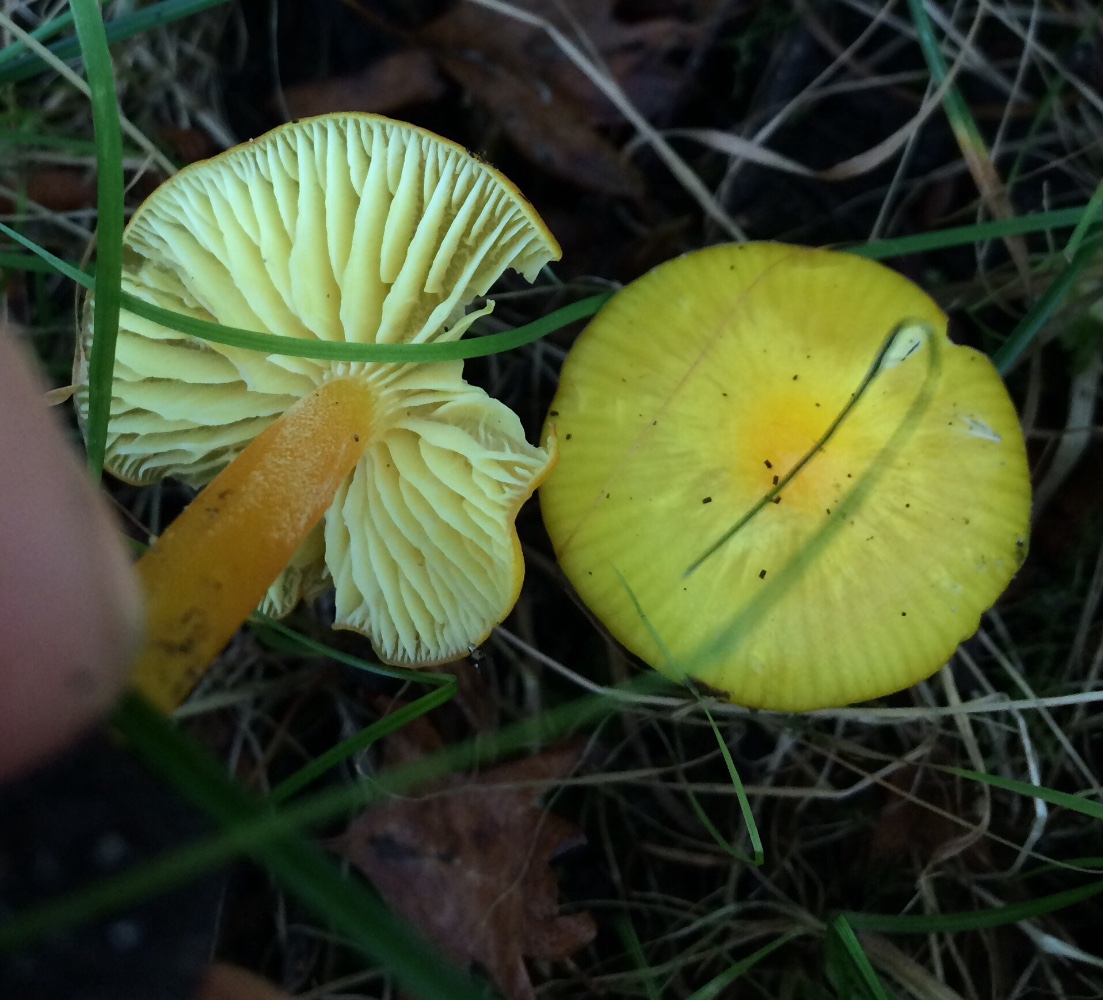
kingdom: Fungi
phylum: Basidiomycota
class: Agaricomycetes
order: Agaricales
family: Hygrophoraceae
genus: Hygrocybe
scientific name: Hygrocybe chlorophana
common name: gul vokshat
